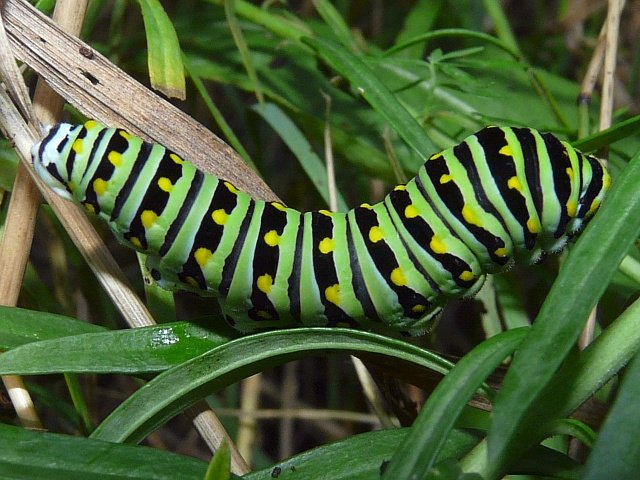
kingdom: Animalia
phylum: Arthropoda
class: Insecta
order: Lepidoptera
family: Papilionidae
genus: Papilio
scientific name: Papilio polyxenes
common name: Black Swallowtail
